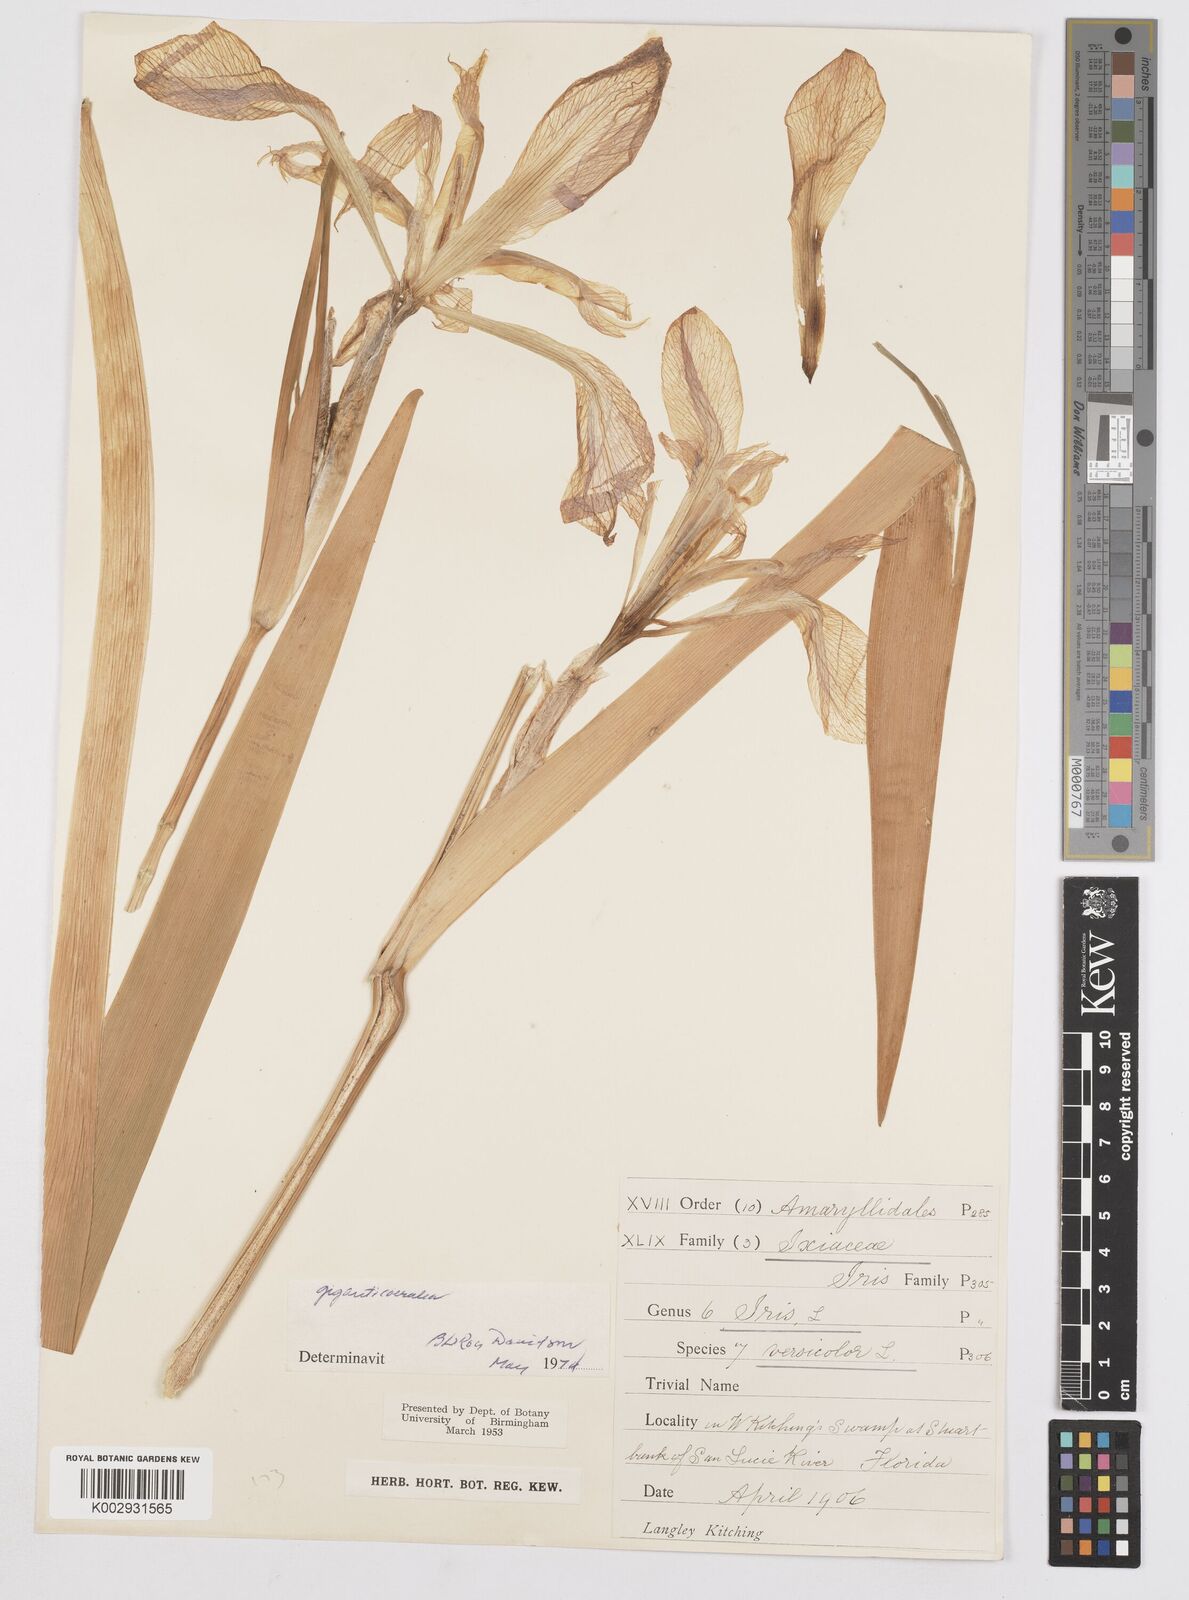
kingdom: Plantae
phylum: Tracheophyta
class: Liliopsida
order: Asparagales
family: Iridaceae
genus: Iris
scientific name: Iris virginica
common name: Southern blue flag
